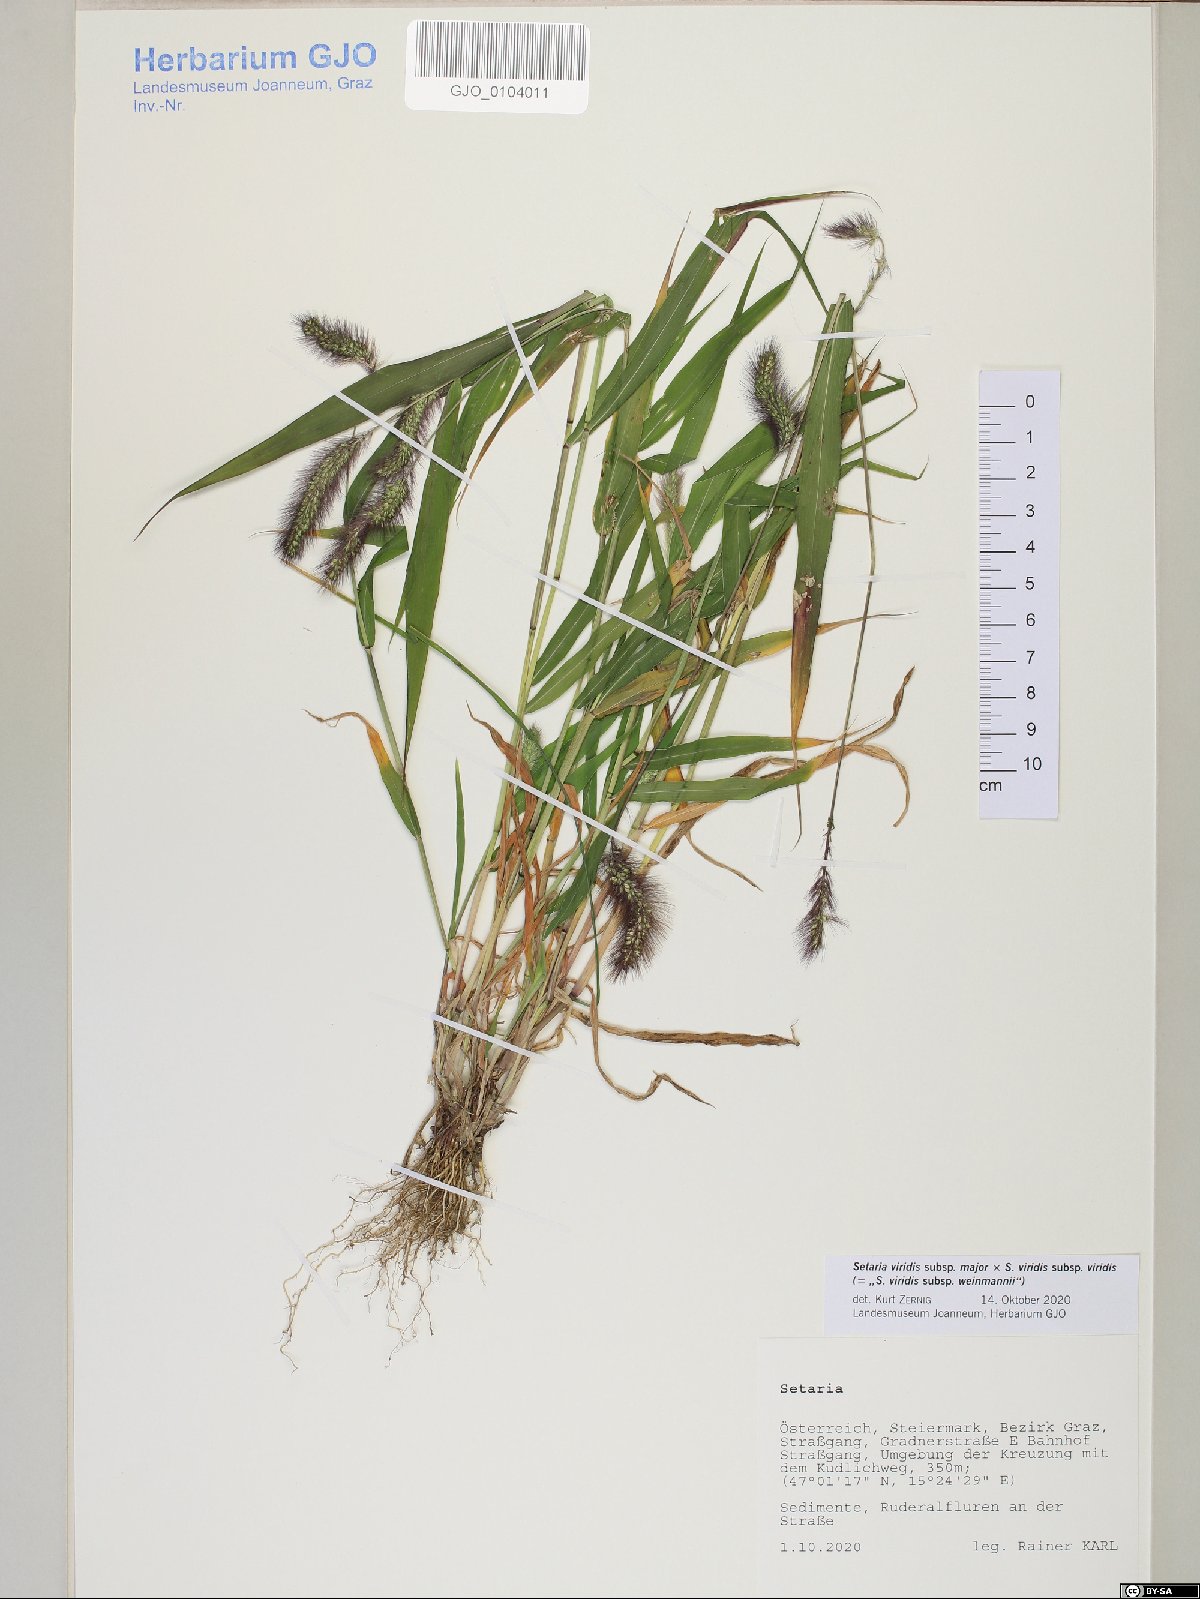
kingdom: Plantae
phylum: Tracheophyta
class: Liliopsida
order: Poales
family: Poaceae
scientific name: Poaceae
